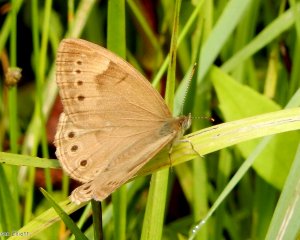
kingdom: Animalia
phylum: Arthropoda
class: Insecta
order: Lepidoptera
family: Nymphalidae
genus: Lethe
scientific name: Lethe eurydice
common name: Eyed Brown
